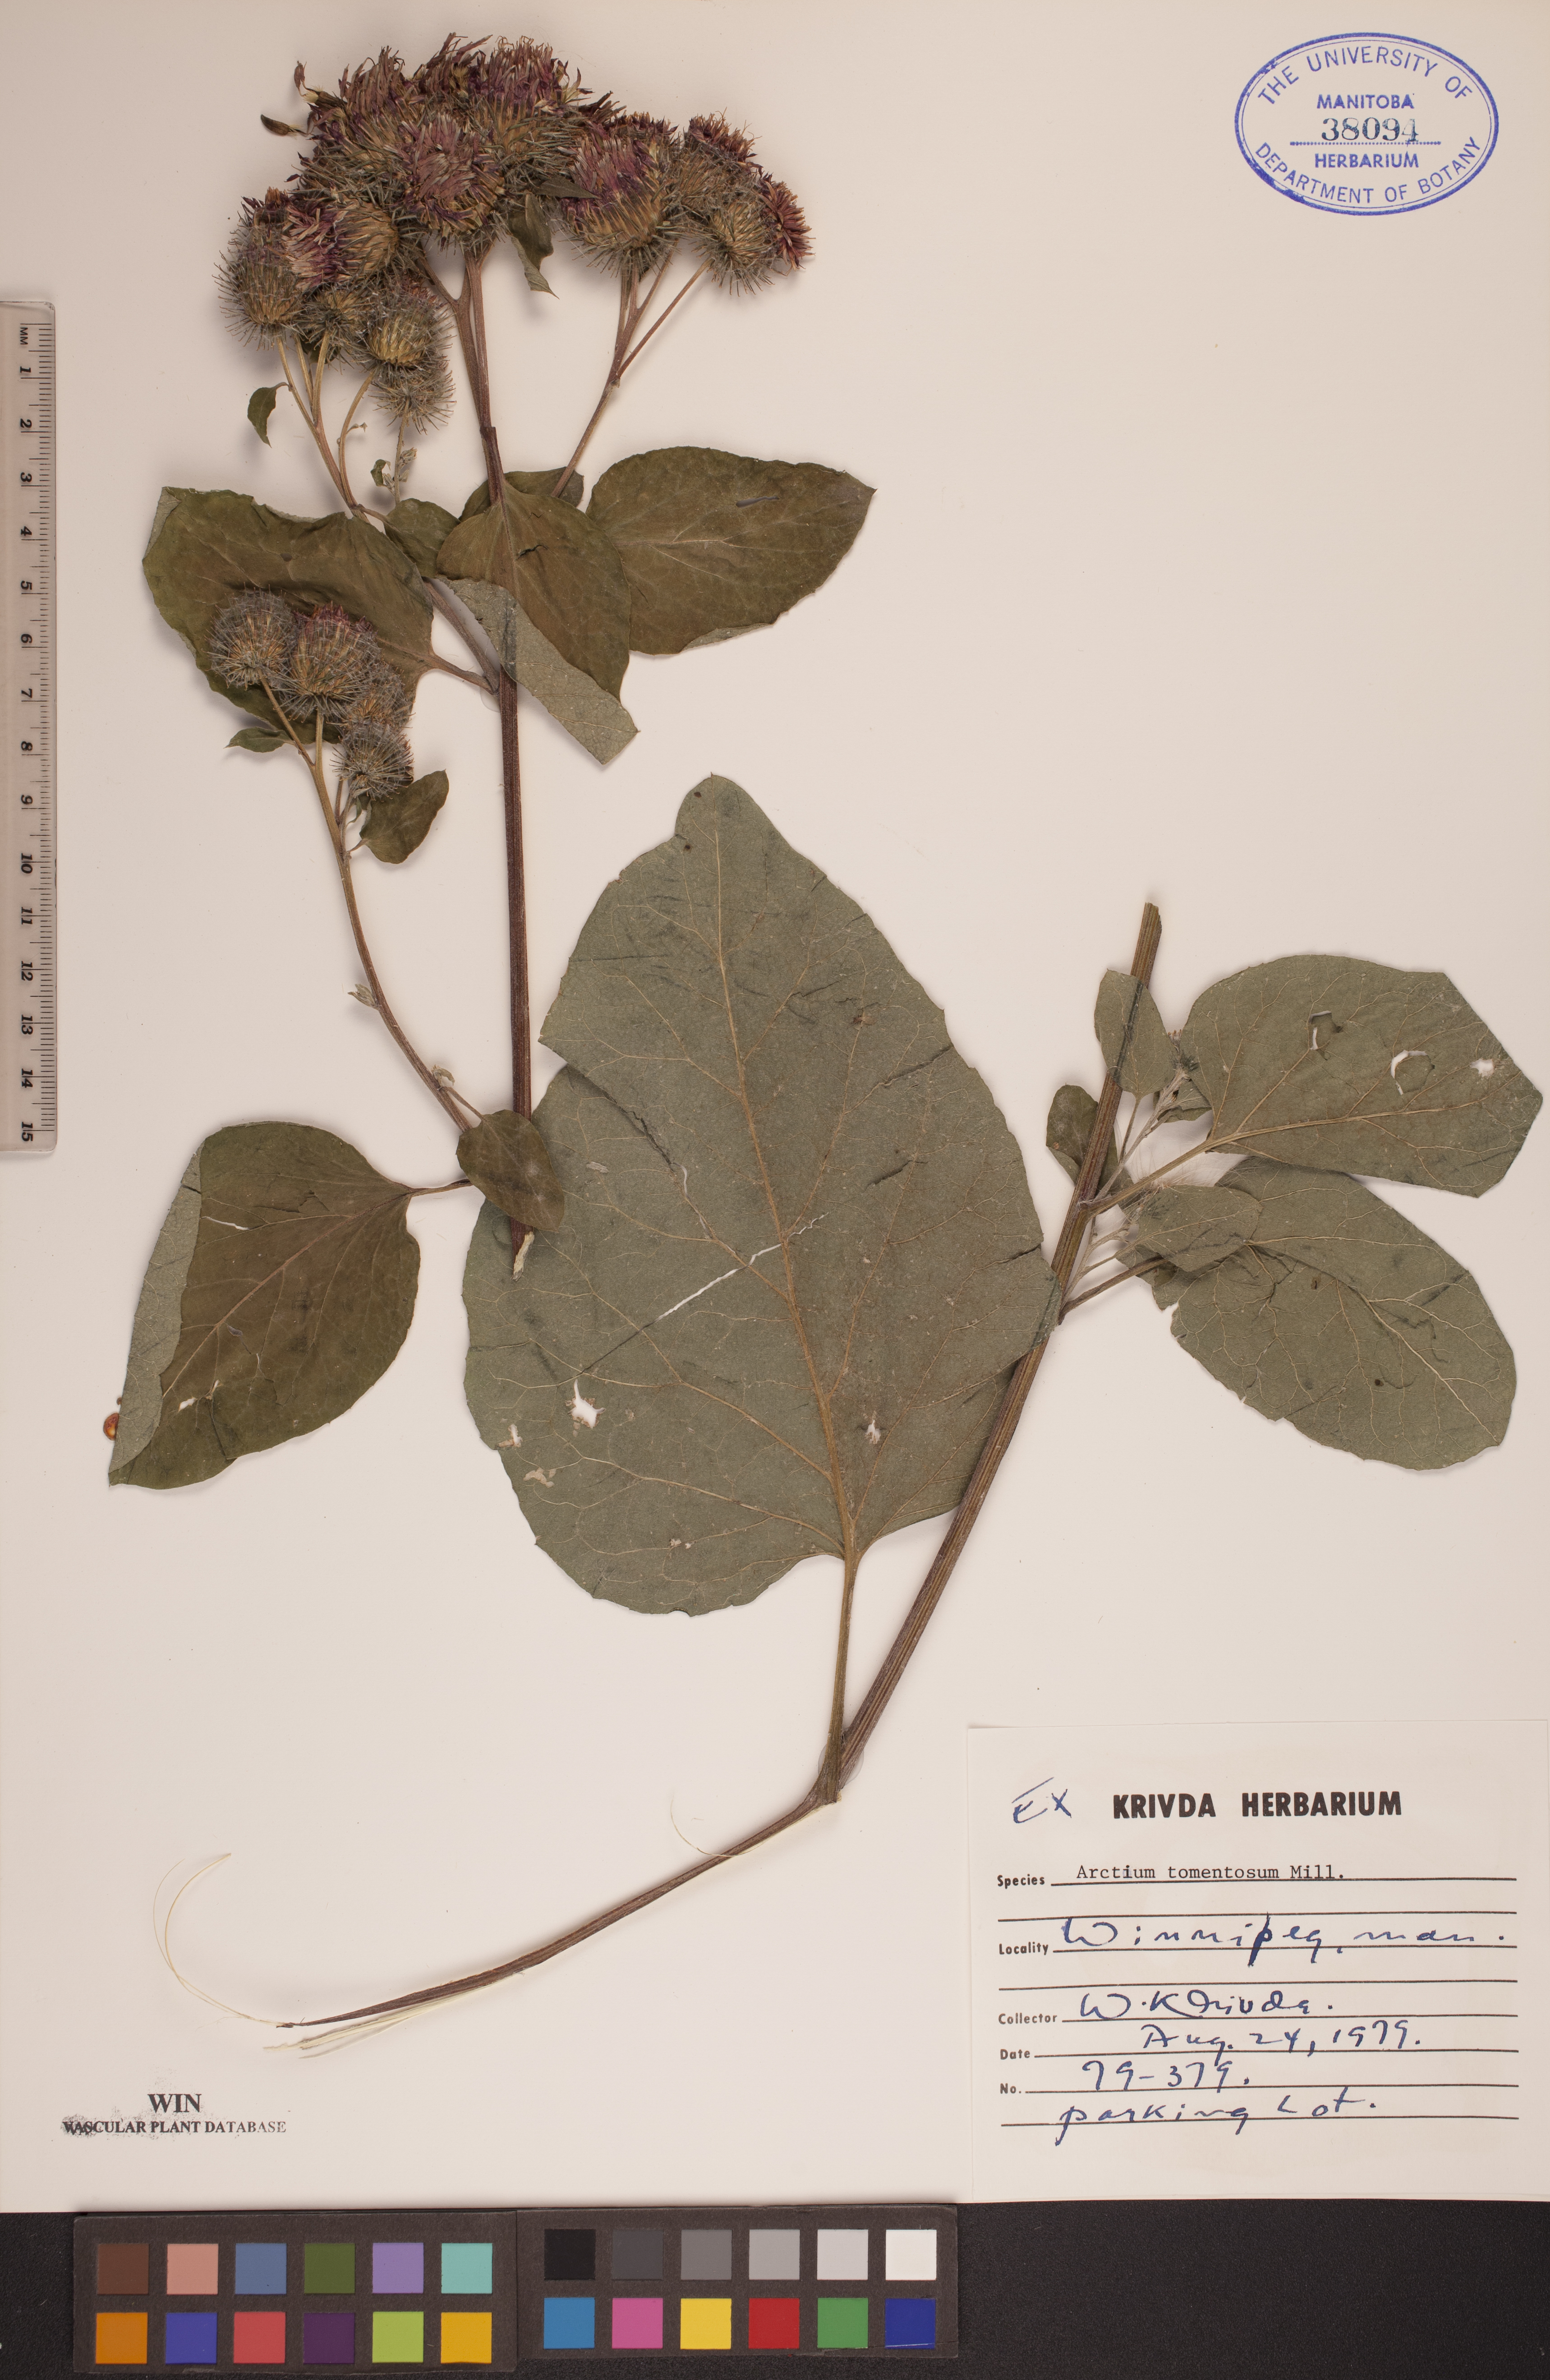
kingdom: Plantae
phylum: Tracheophyta
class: Magnoliopsida
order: Asterales
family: Asteraceae
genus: Arctium
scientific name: Arctium tomentosum
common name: Woolly burdock
